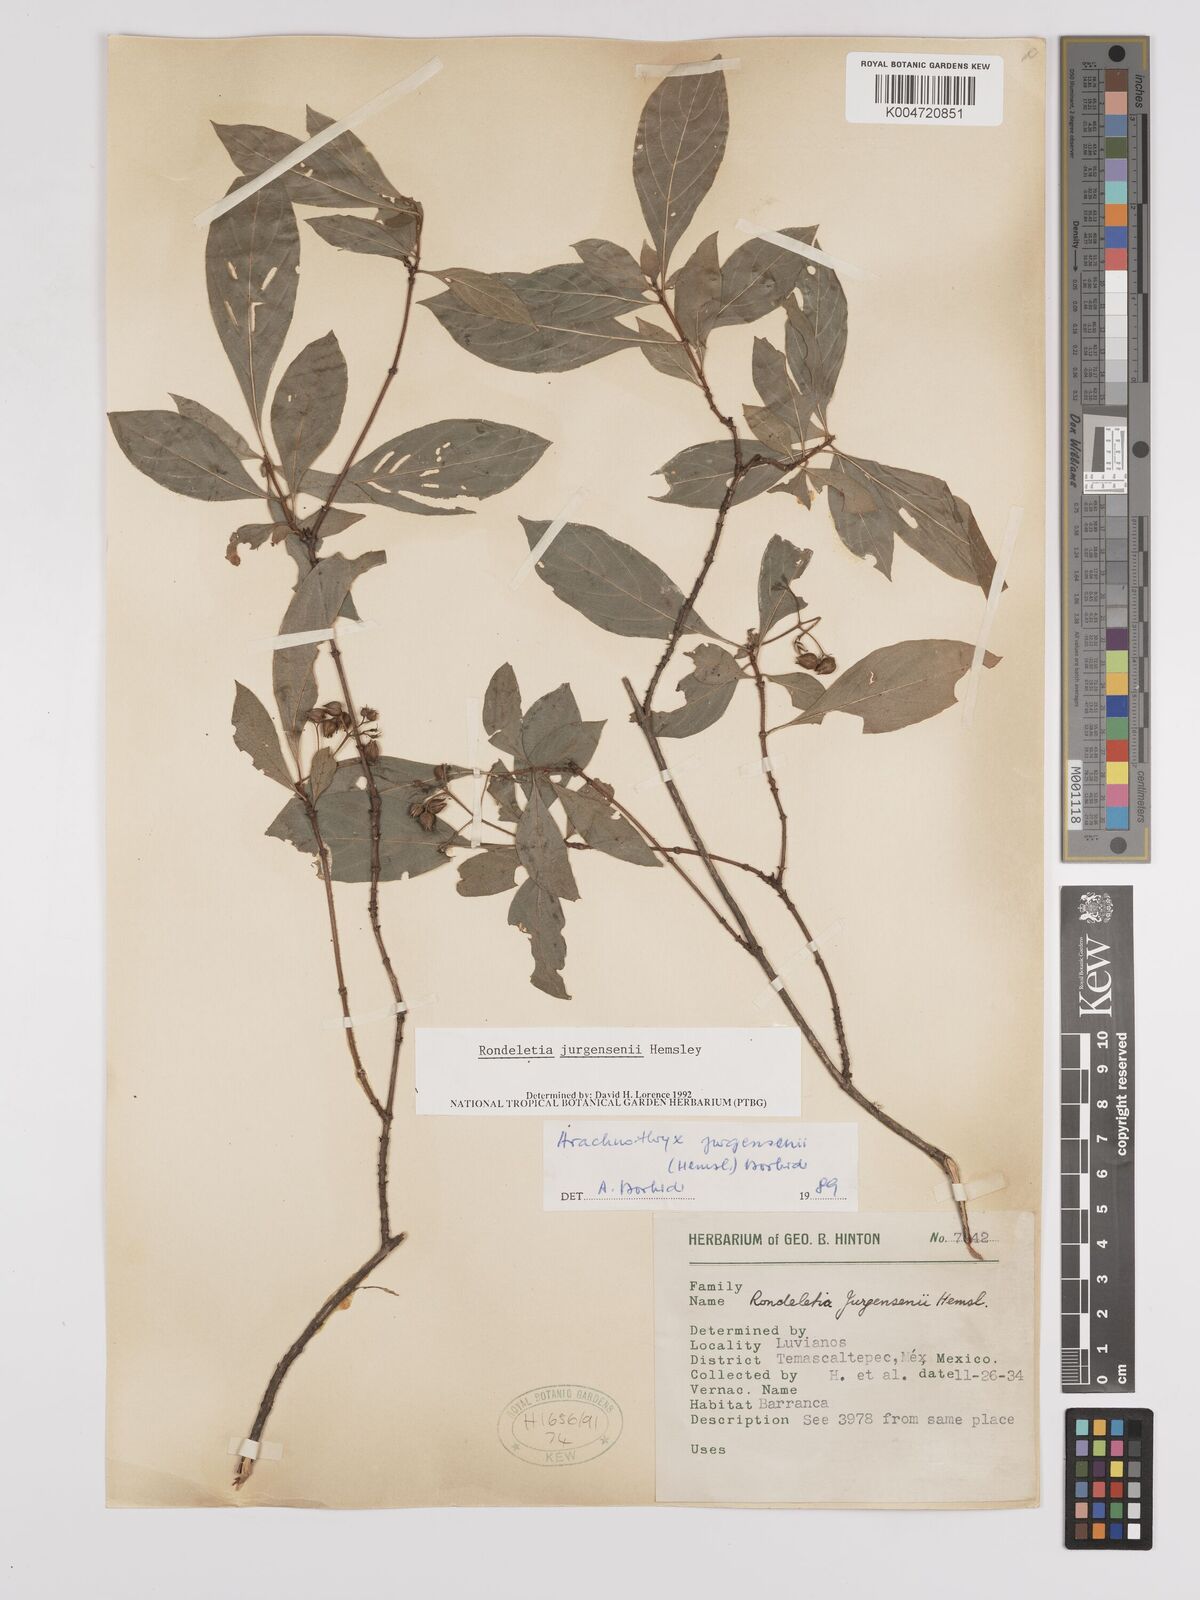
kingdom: Plantae
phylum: Tracheophyta
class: Magnoliopsida
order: Gentianales
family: Rubiaceae
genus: Arachnothryx
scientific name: Arachnothryx jurgensenii
